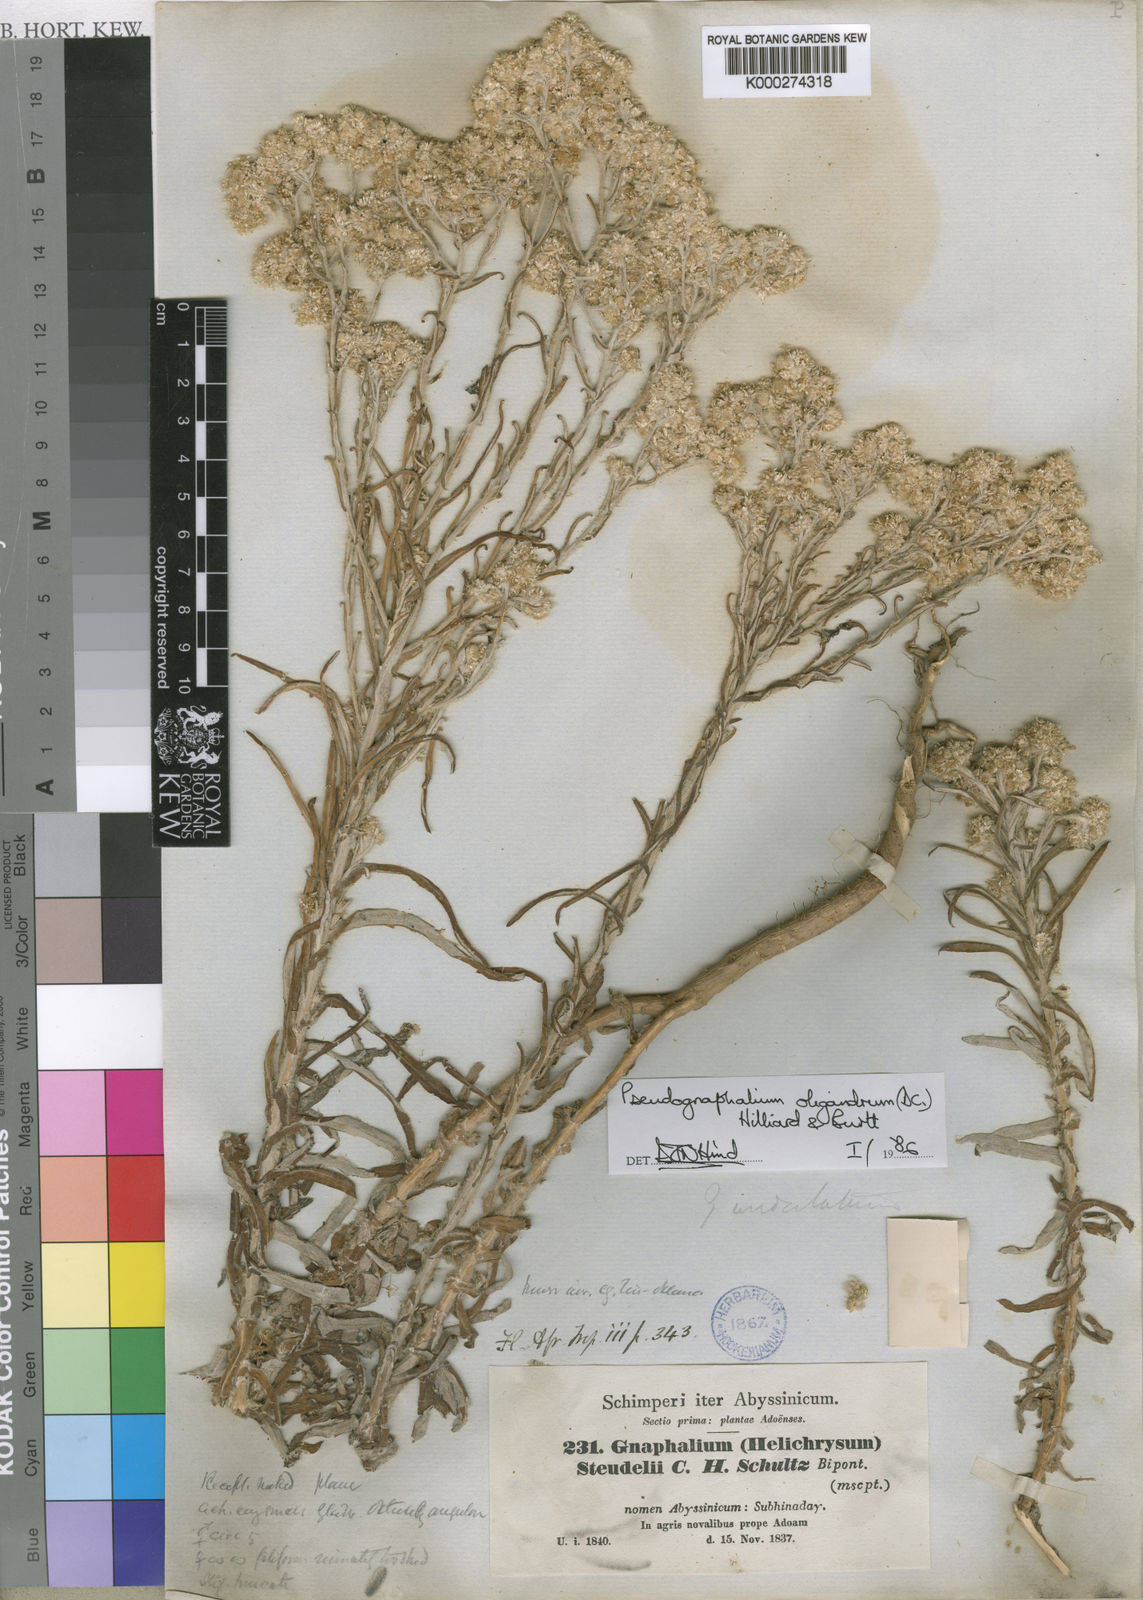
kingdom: Plantae
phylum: Tracheophyta
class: Magnoliopsida
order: Asterales
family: Asteraceae
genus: Pseudognaphalium
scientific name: Pseudognaphalium undulatum
